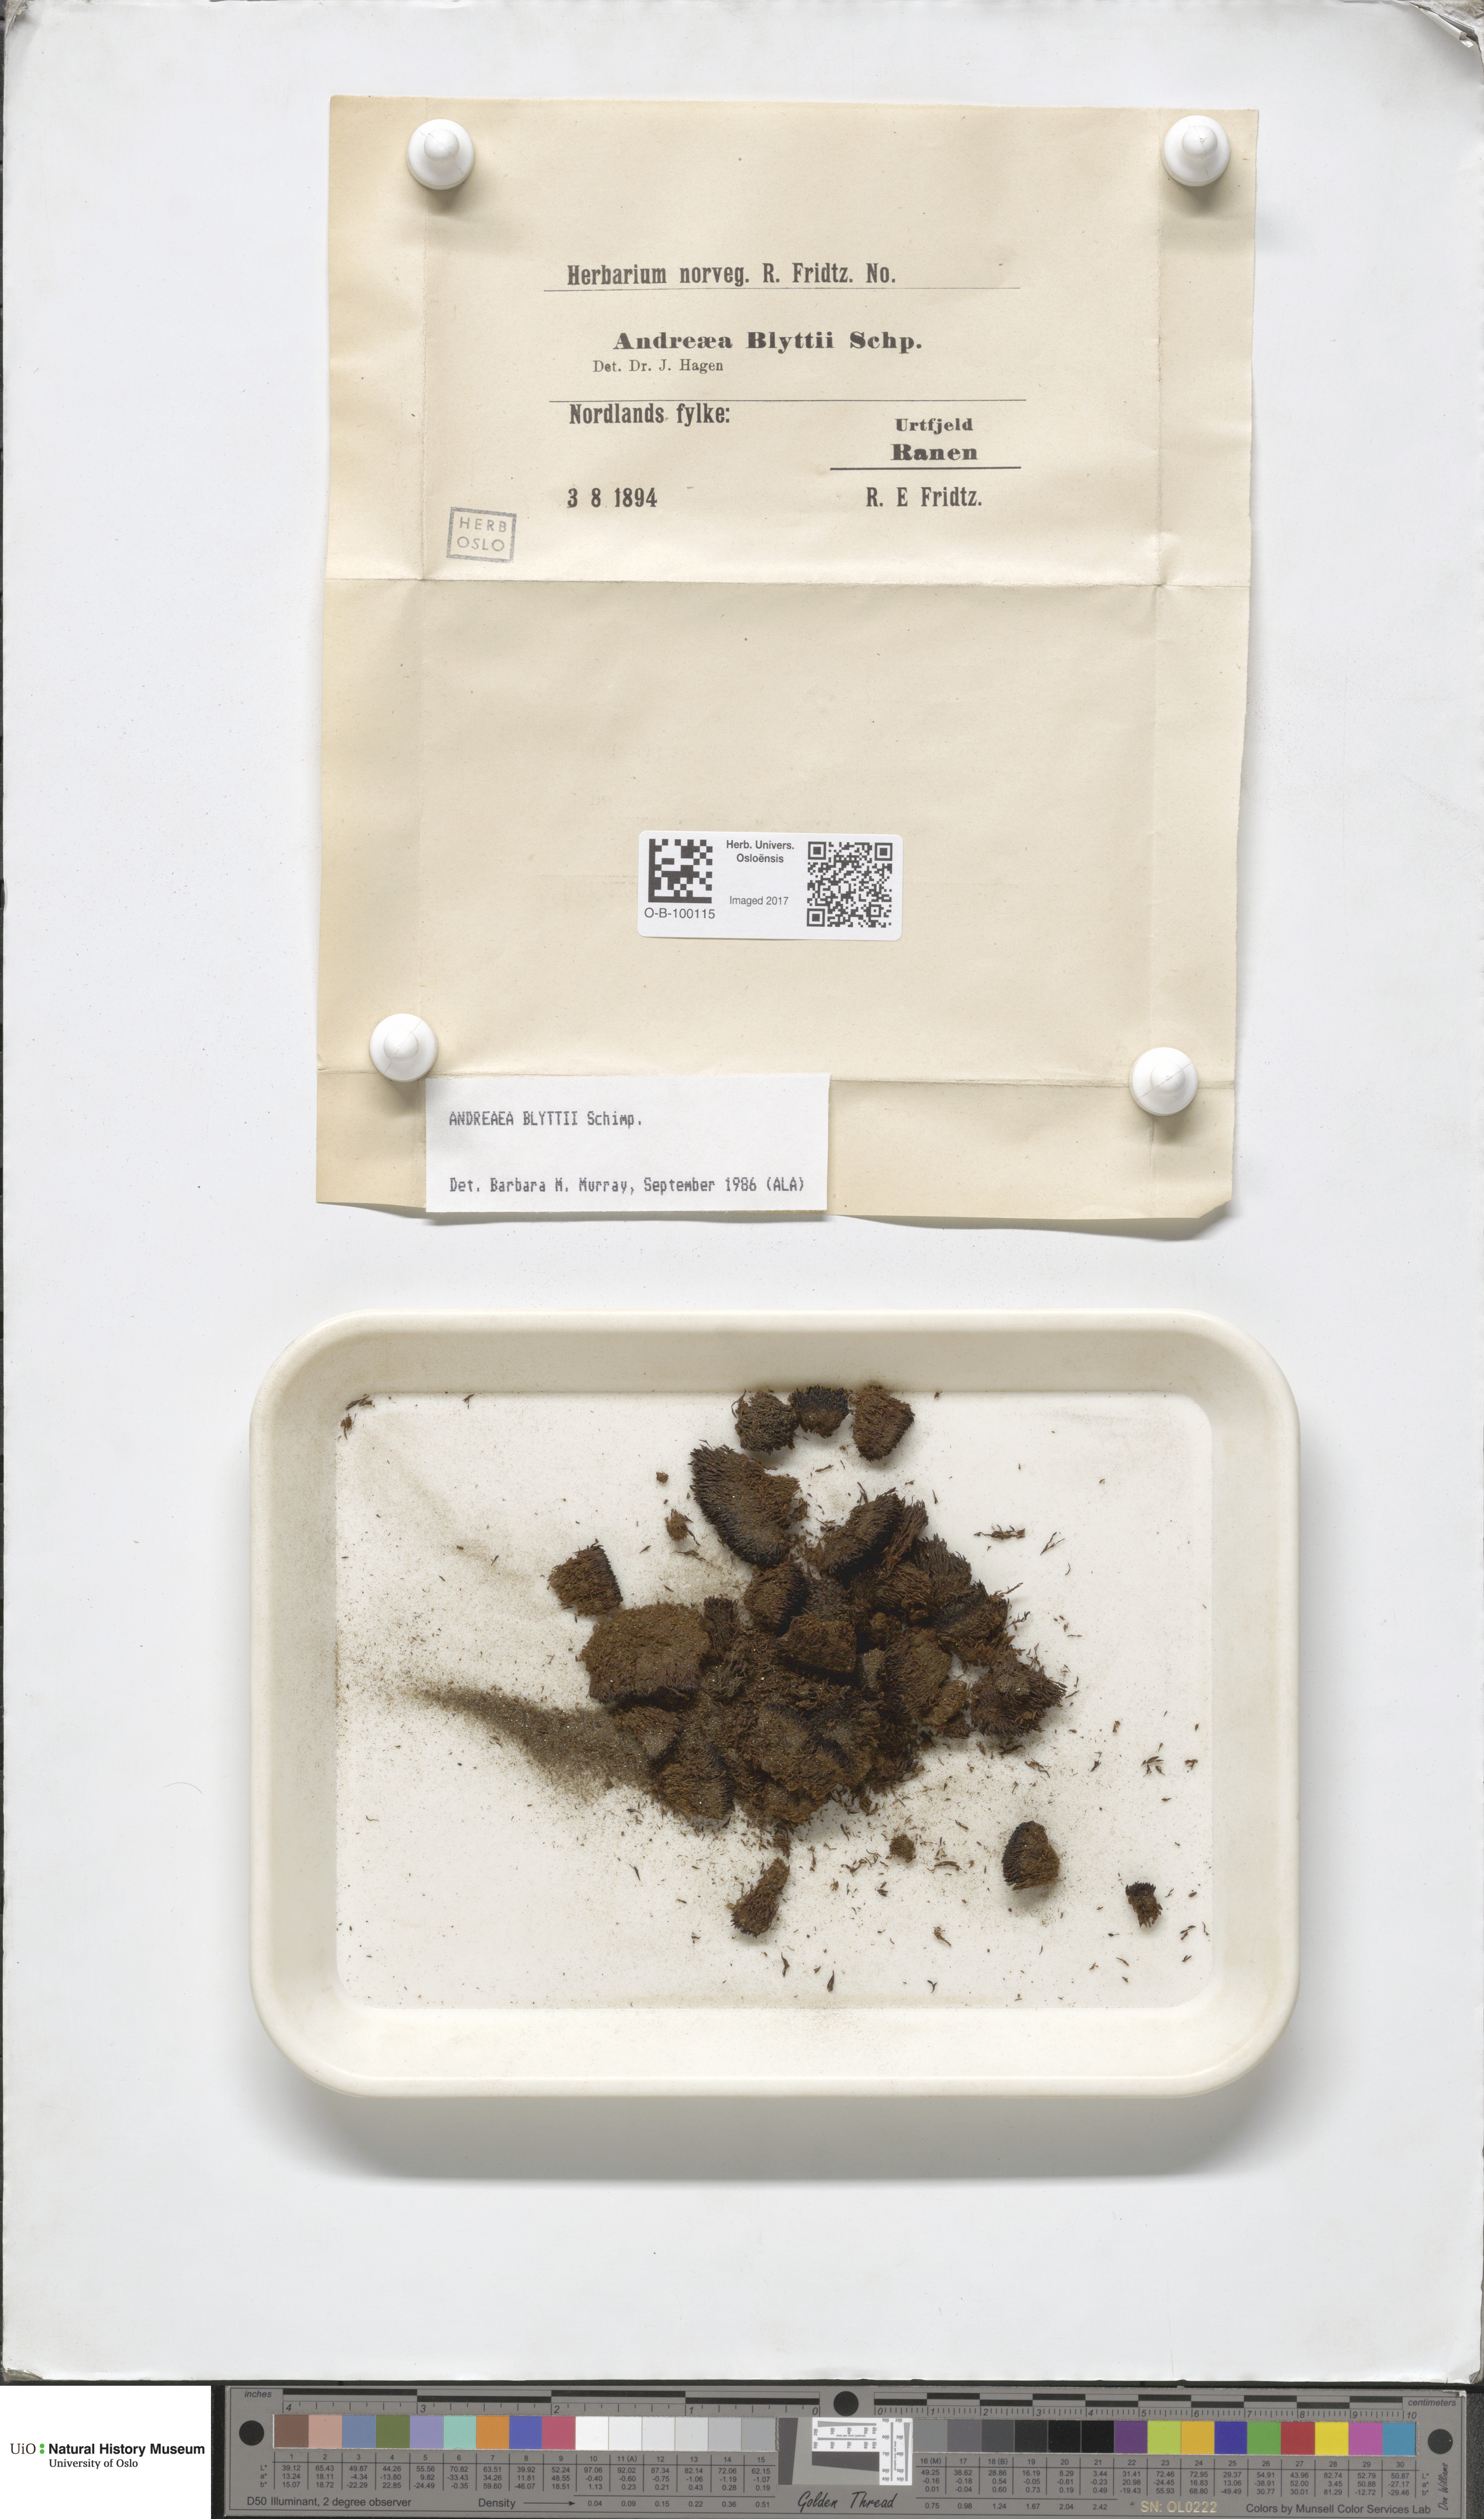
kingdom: Plantae
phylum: Bryophyta
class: Andreaeopsida
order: Andreaeales
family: Andreaeaceae
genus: Andreaea
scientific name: Andreaea blyttii
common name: Blytt's rock moss
